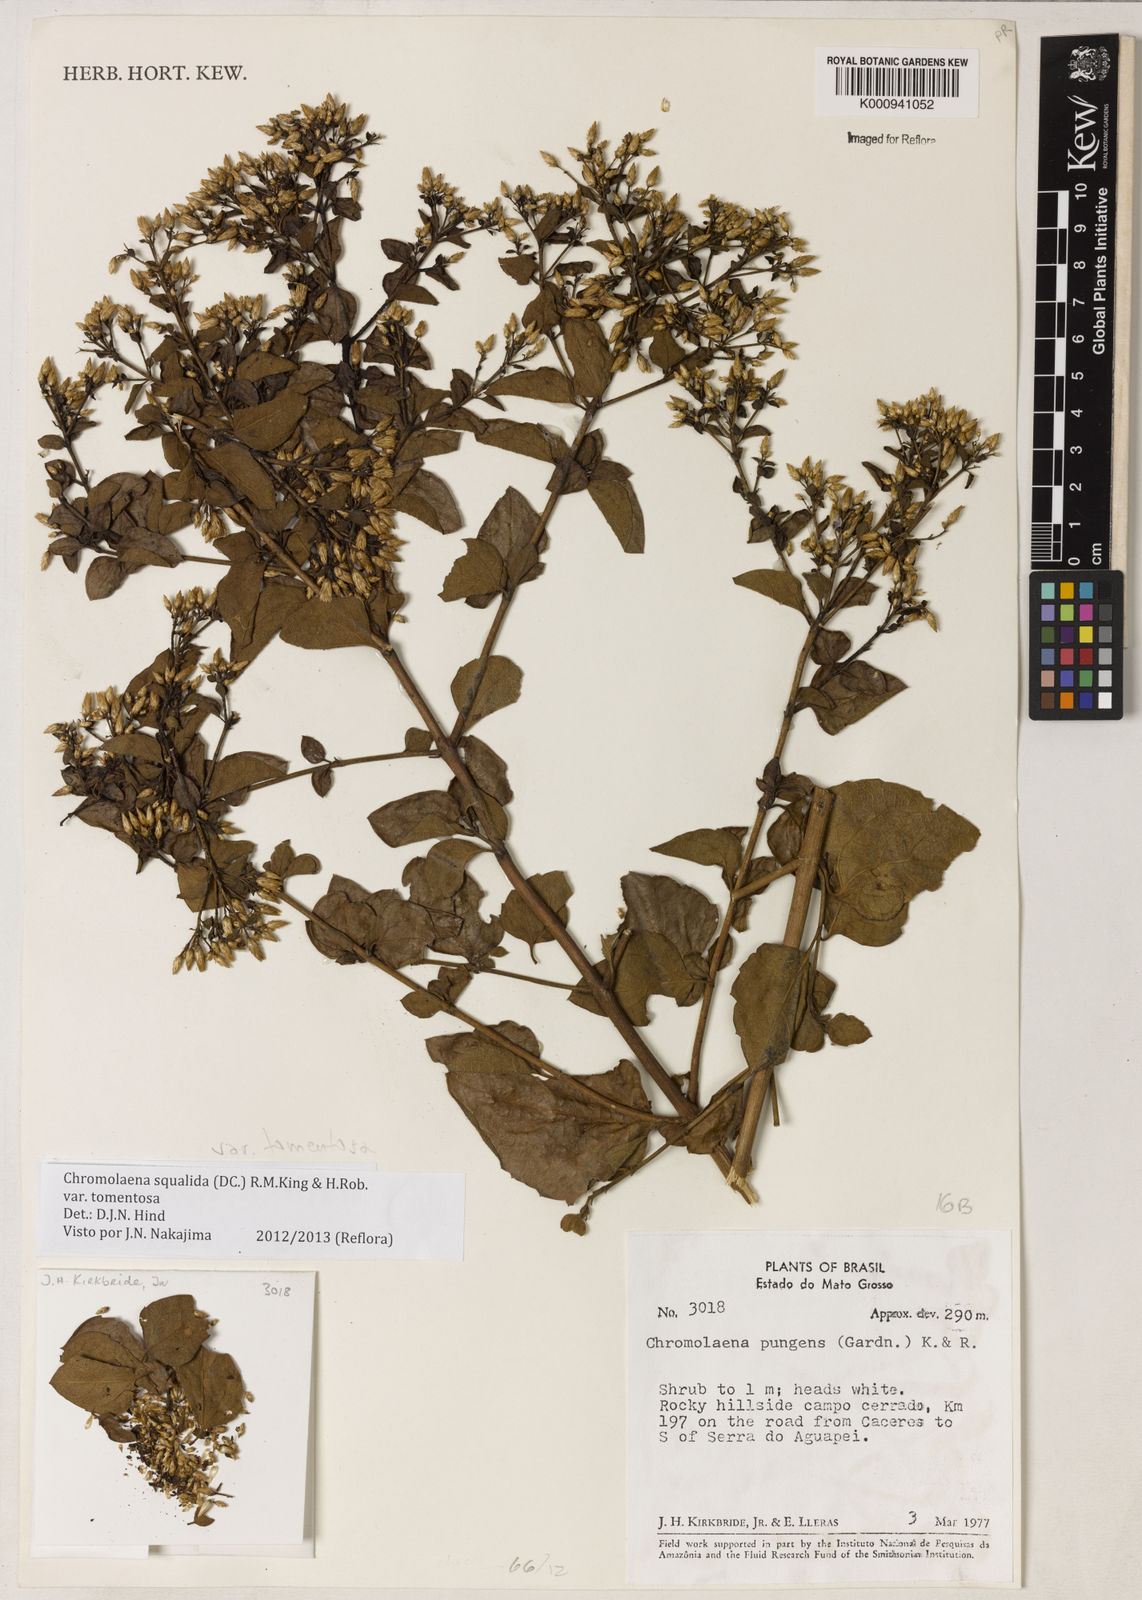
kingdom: Plantae
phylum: Tracheophyta
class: Magnoliopsida
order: Asterales
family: Asteraceae
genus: Chromolaena
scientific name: Chromolaena squalida
